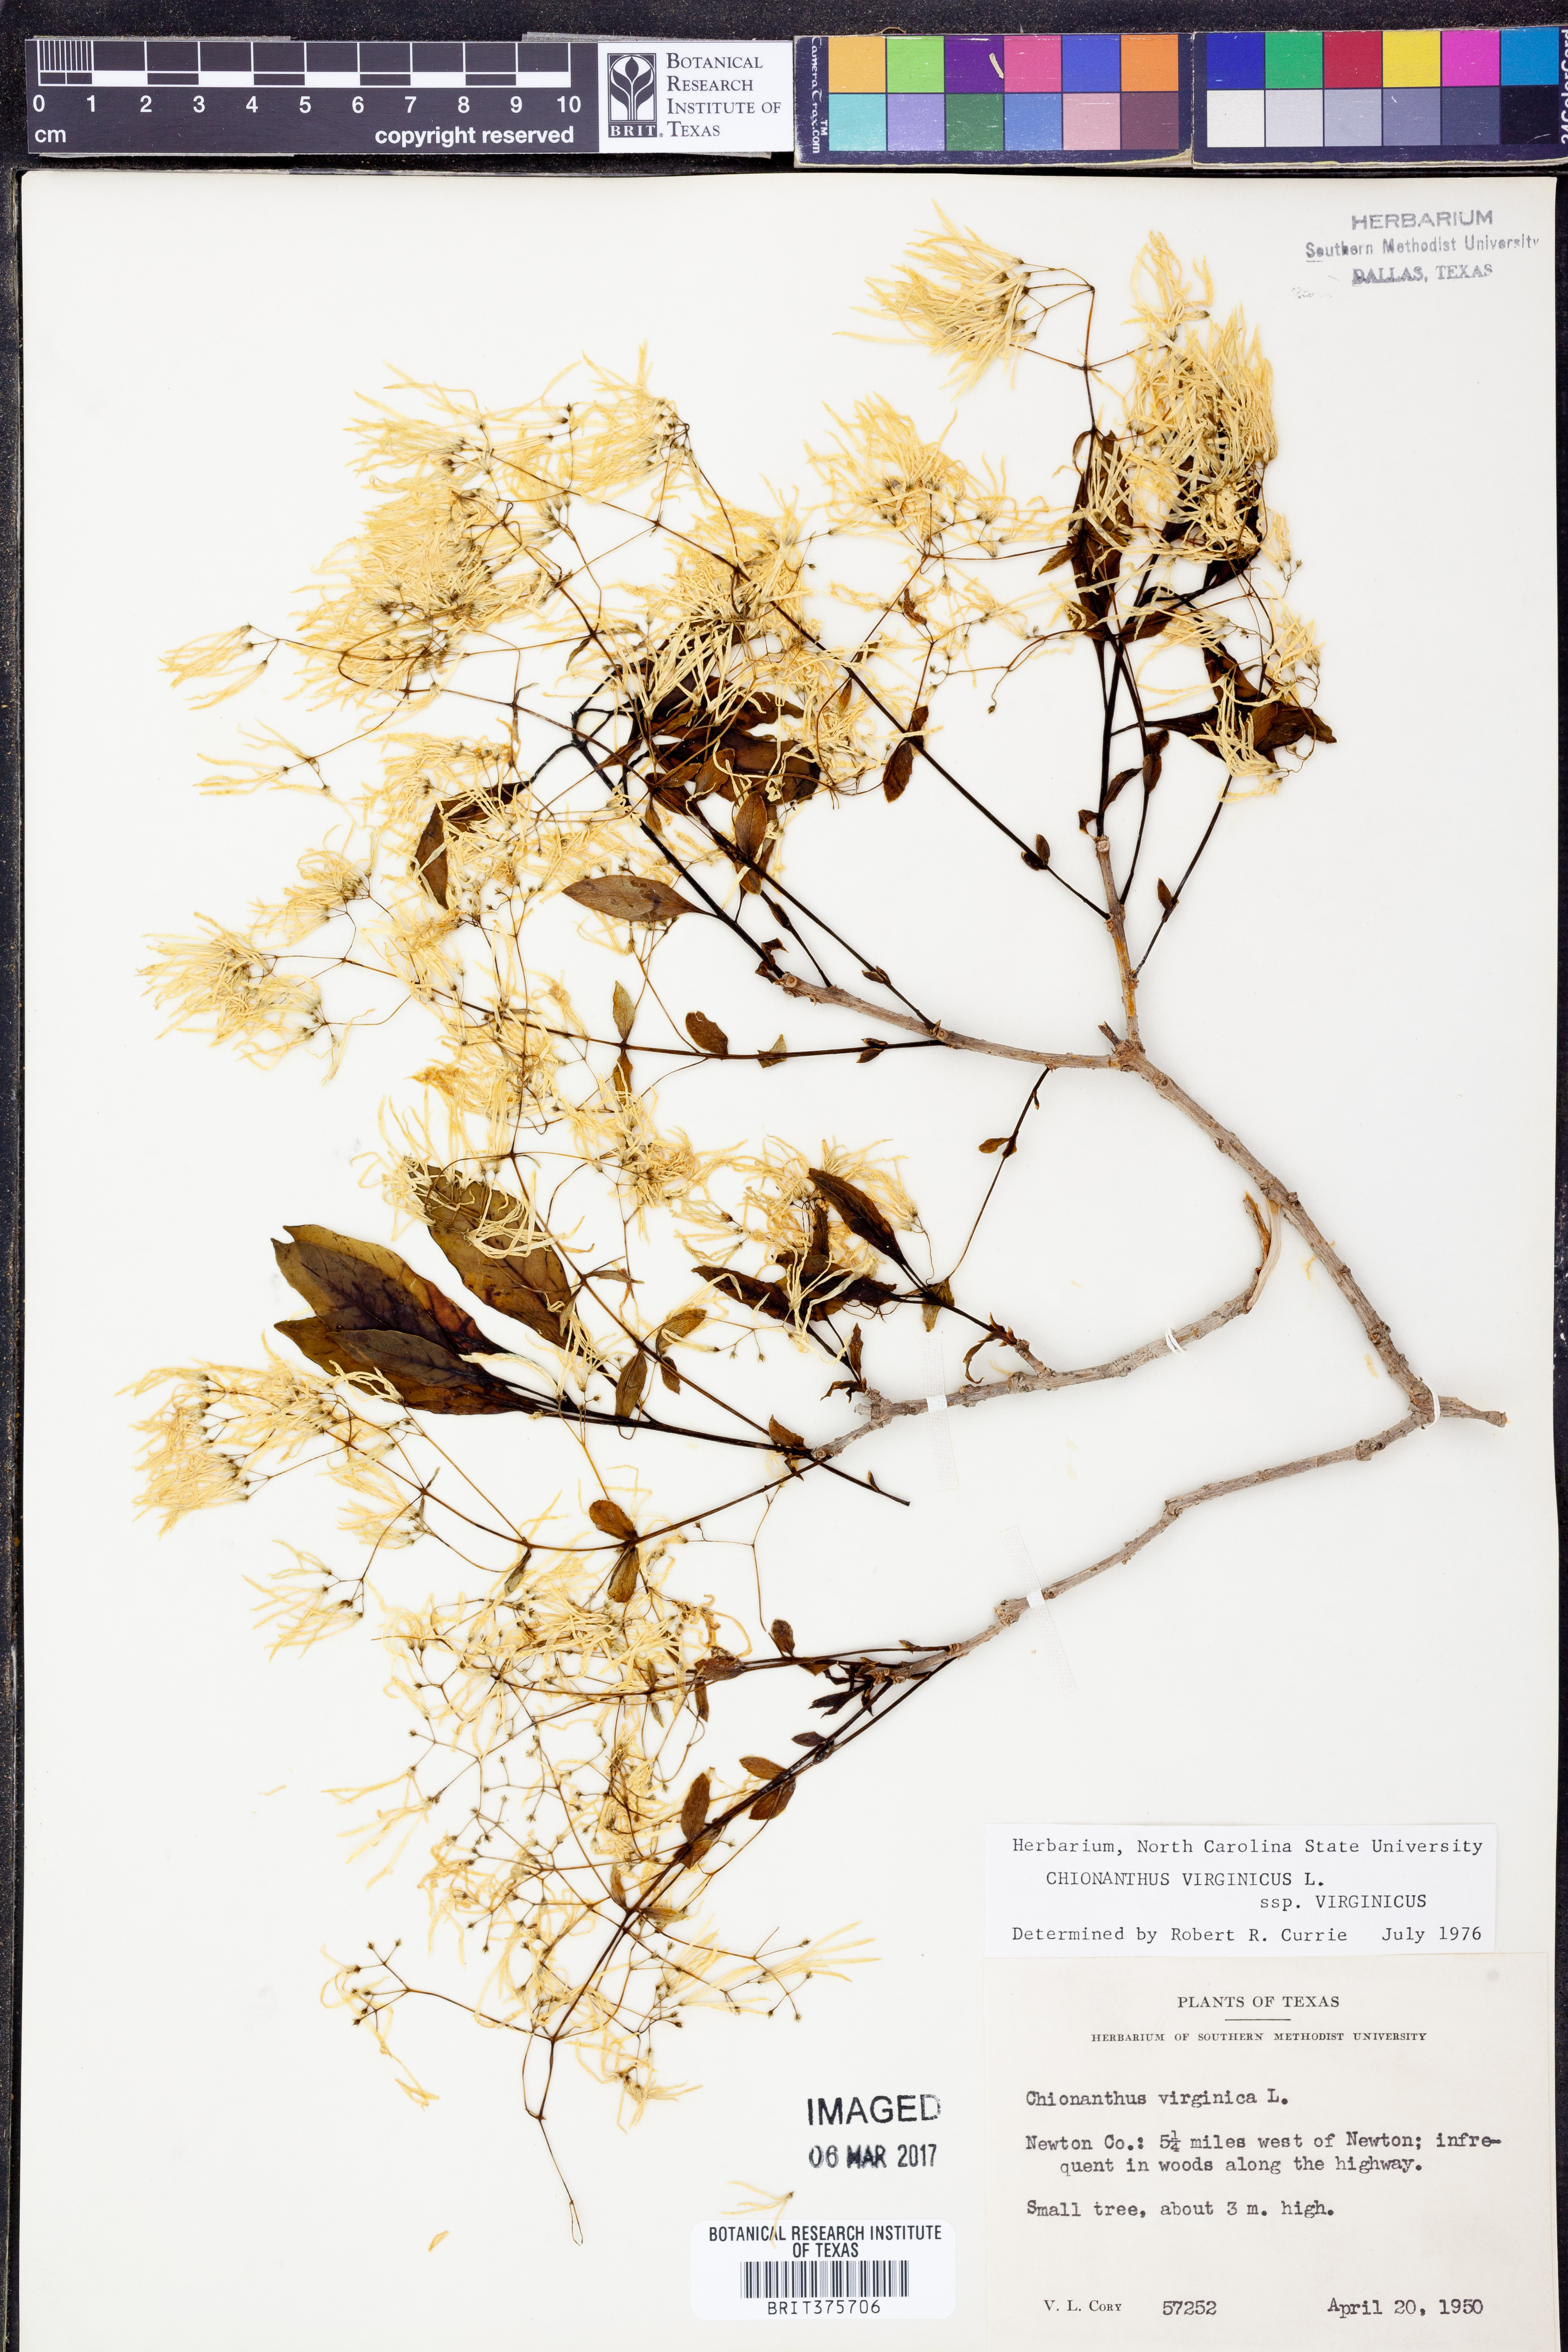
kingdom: Plantae
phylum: Tracheophyta
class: Magnoliopsida
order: Lamiales
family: Oleaceae
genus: Chionanthus
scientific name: Chionanthus virginicus
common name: American fringetree
